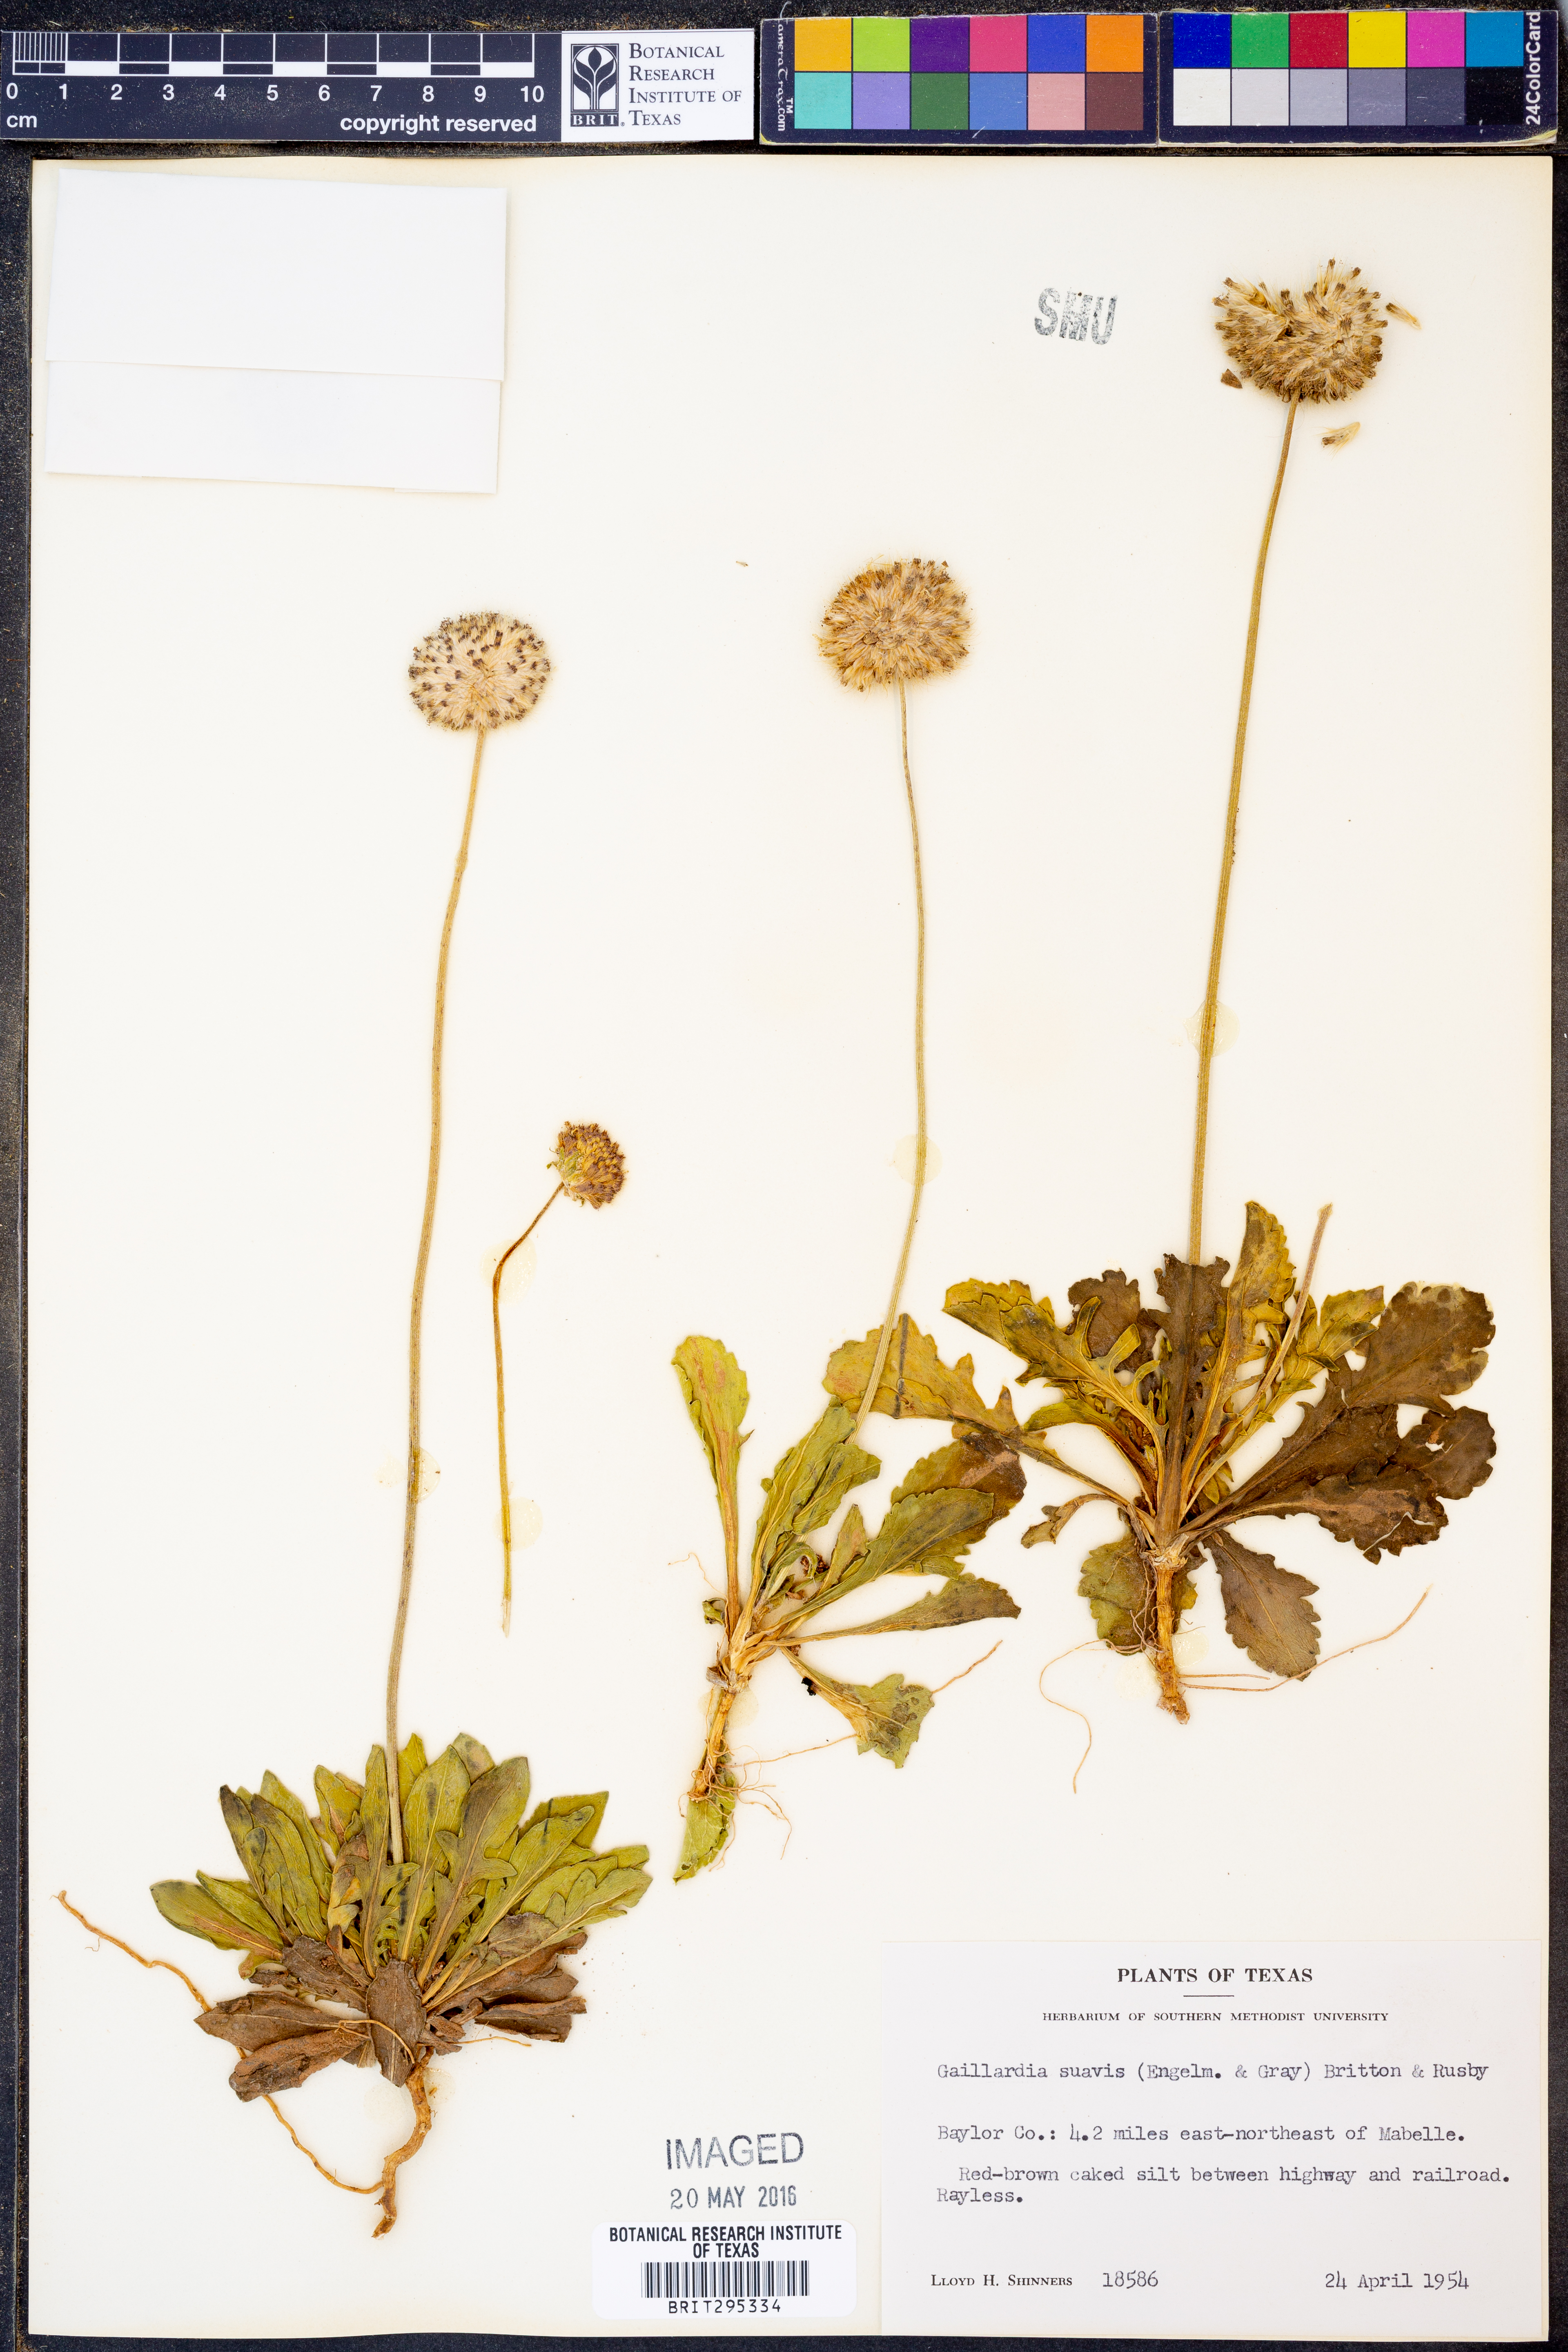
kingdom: Plantae
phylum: Tracheophyta
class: Magnoliopsida
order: Asterales
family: Asteraceae
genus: Gaillardia
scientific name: Gaillardia suavis
